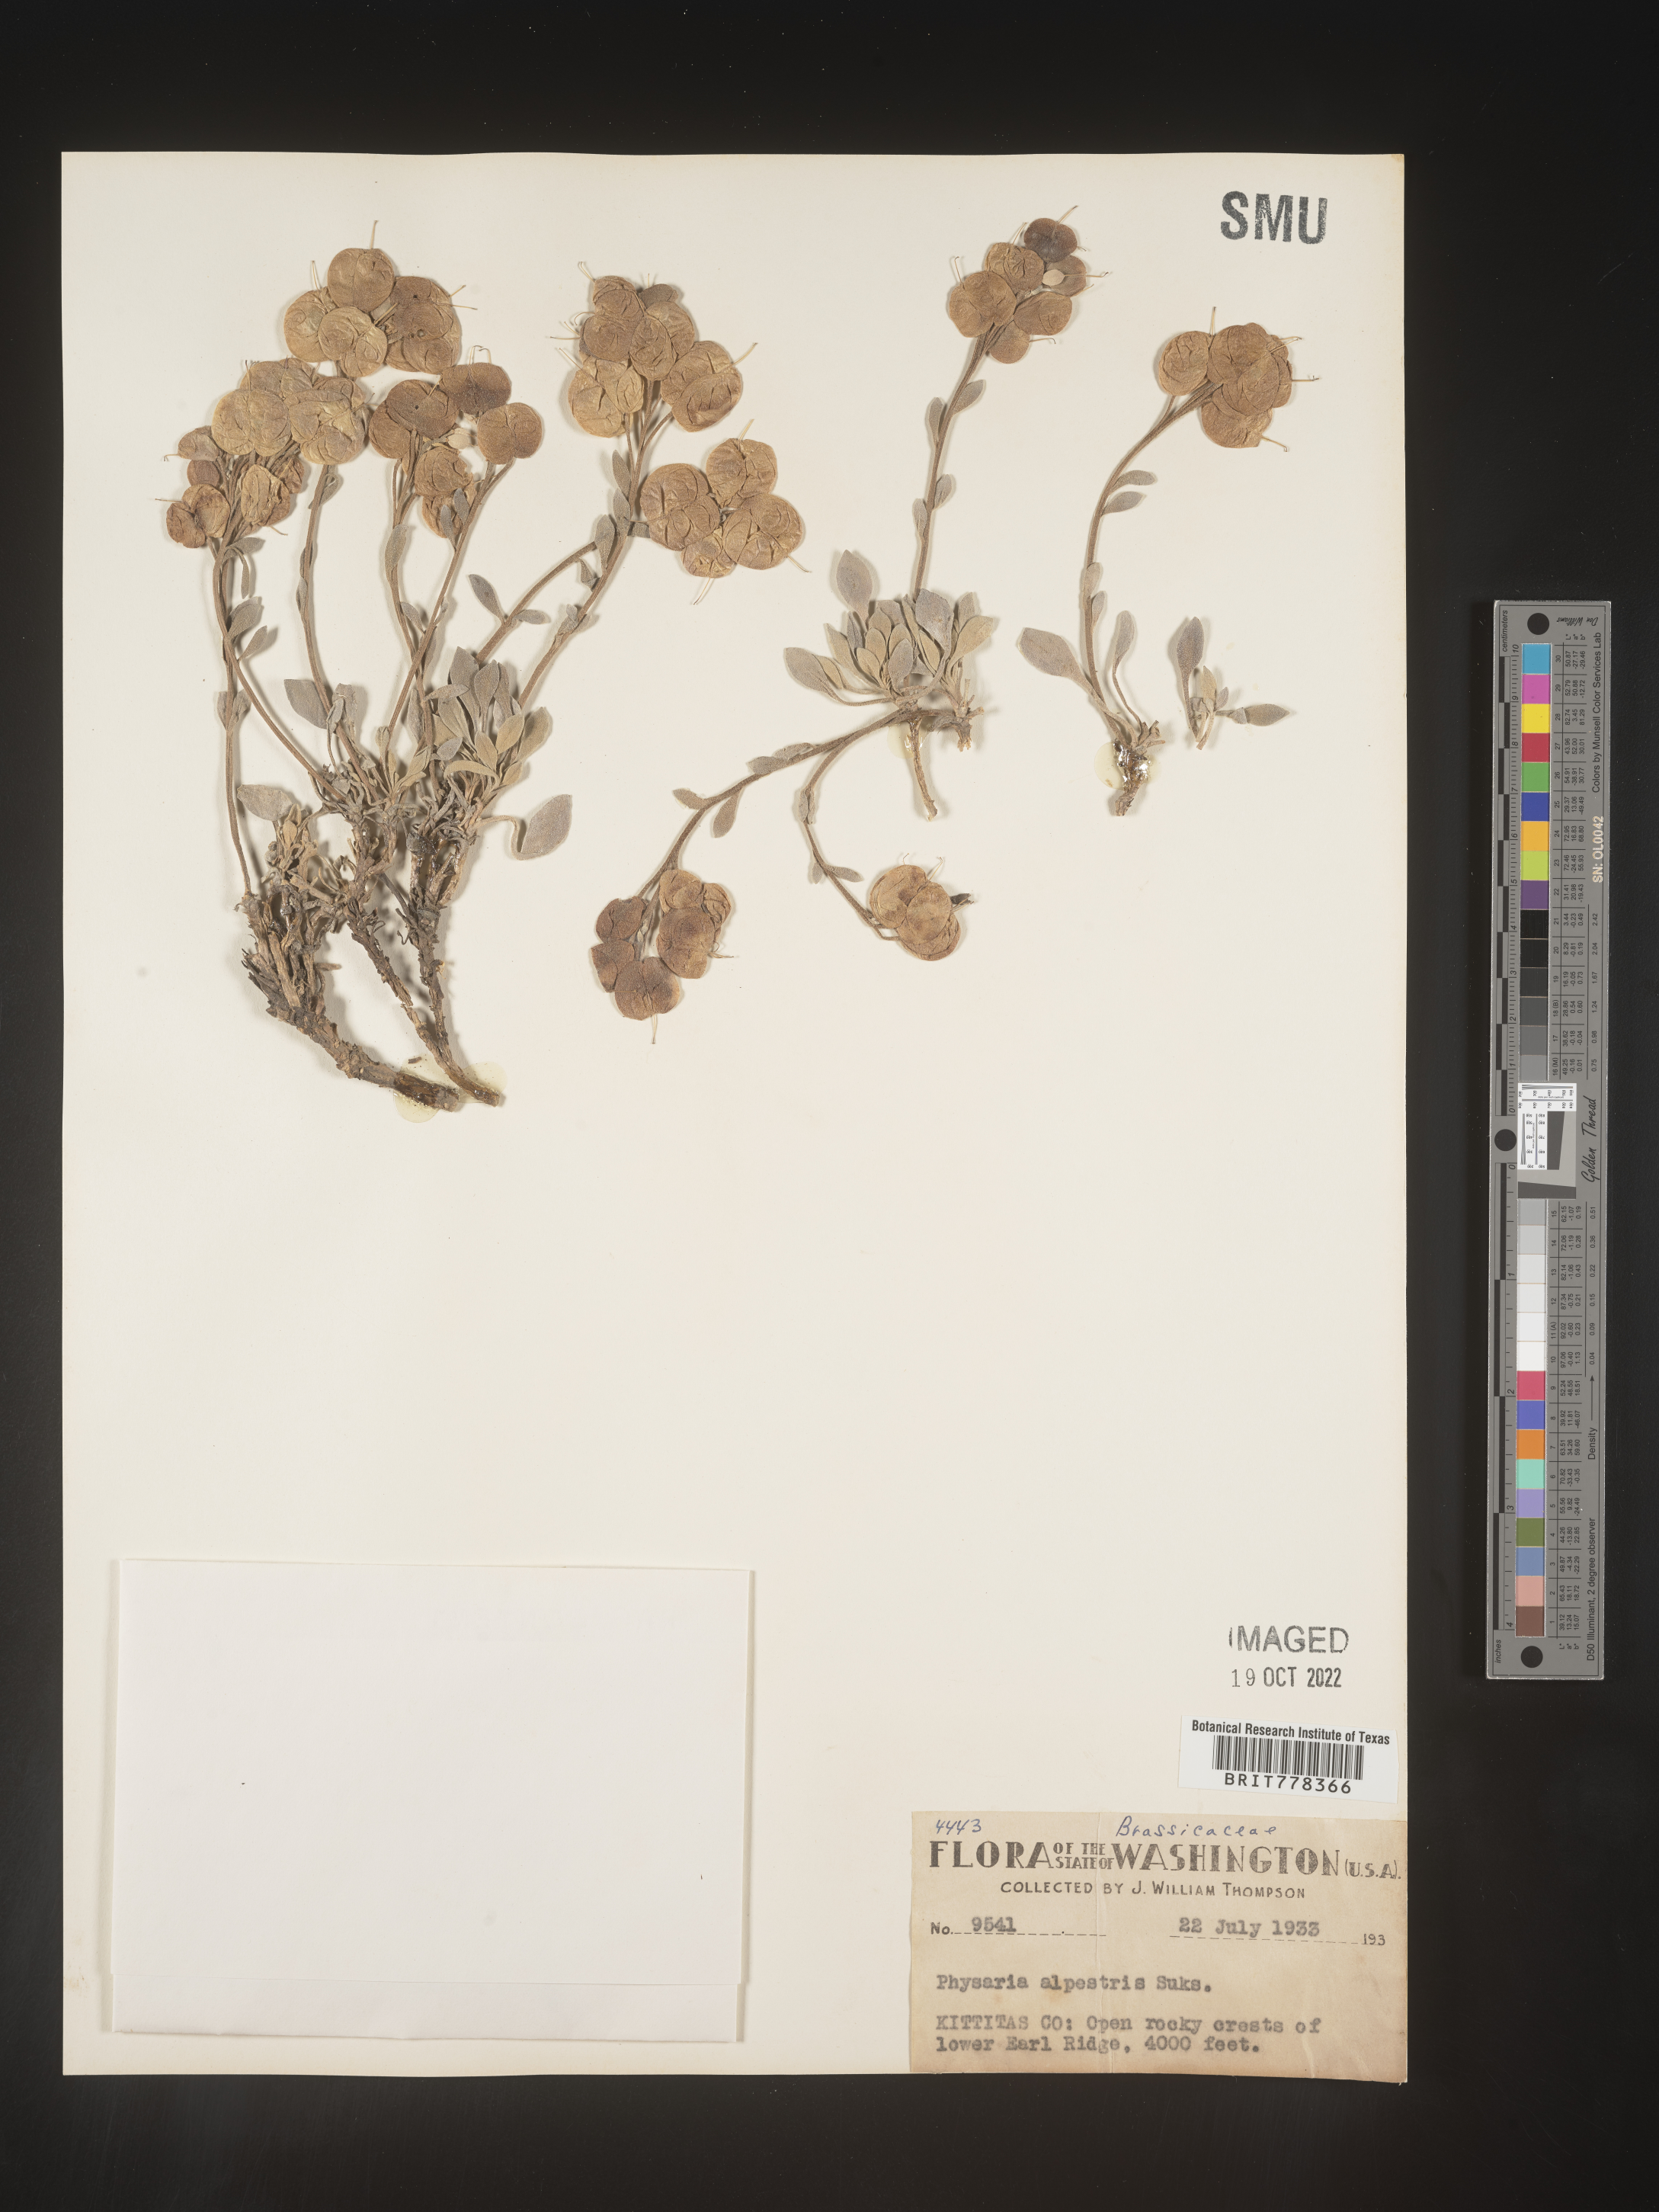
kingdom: Plantae
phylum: Tracheophyta
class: Magnoliopsida
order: Brassicales
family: Brassicaceae
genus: Physaria
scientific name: Physaria
